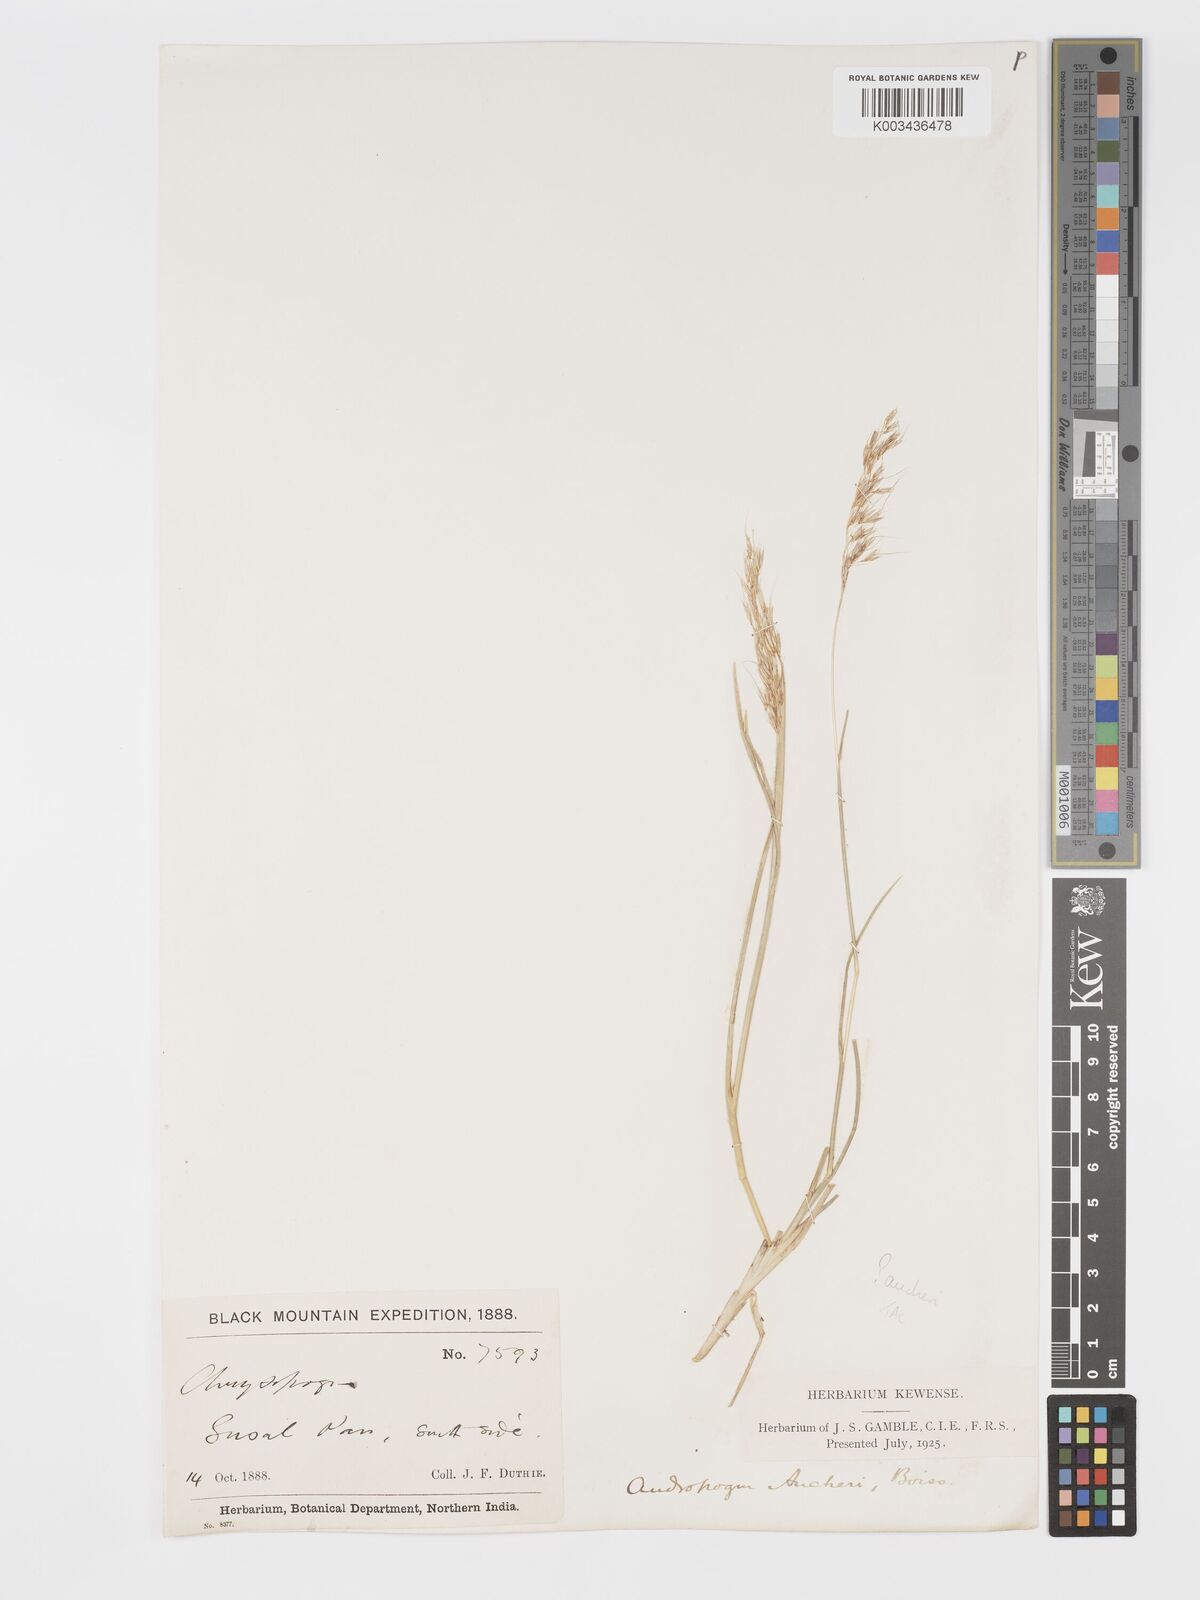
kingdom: Plantae
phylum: Tracheophyta
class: Liliopsida
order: Poales
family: Poaceae
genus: Chrysopogon
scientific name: Chrysopogon aucheri
